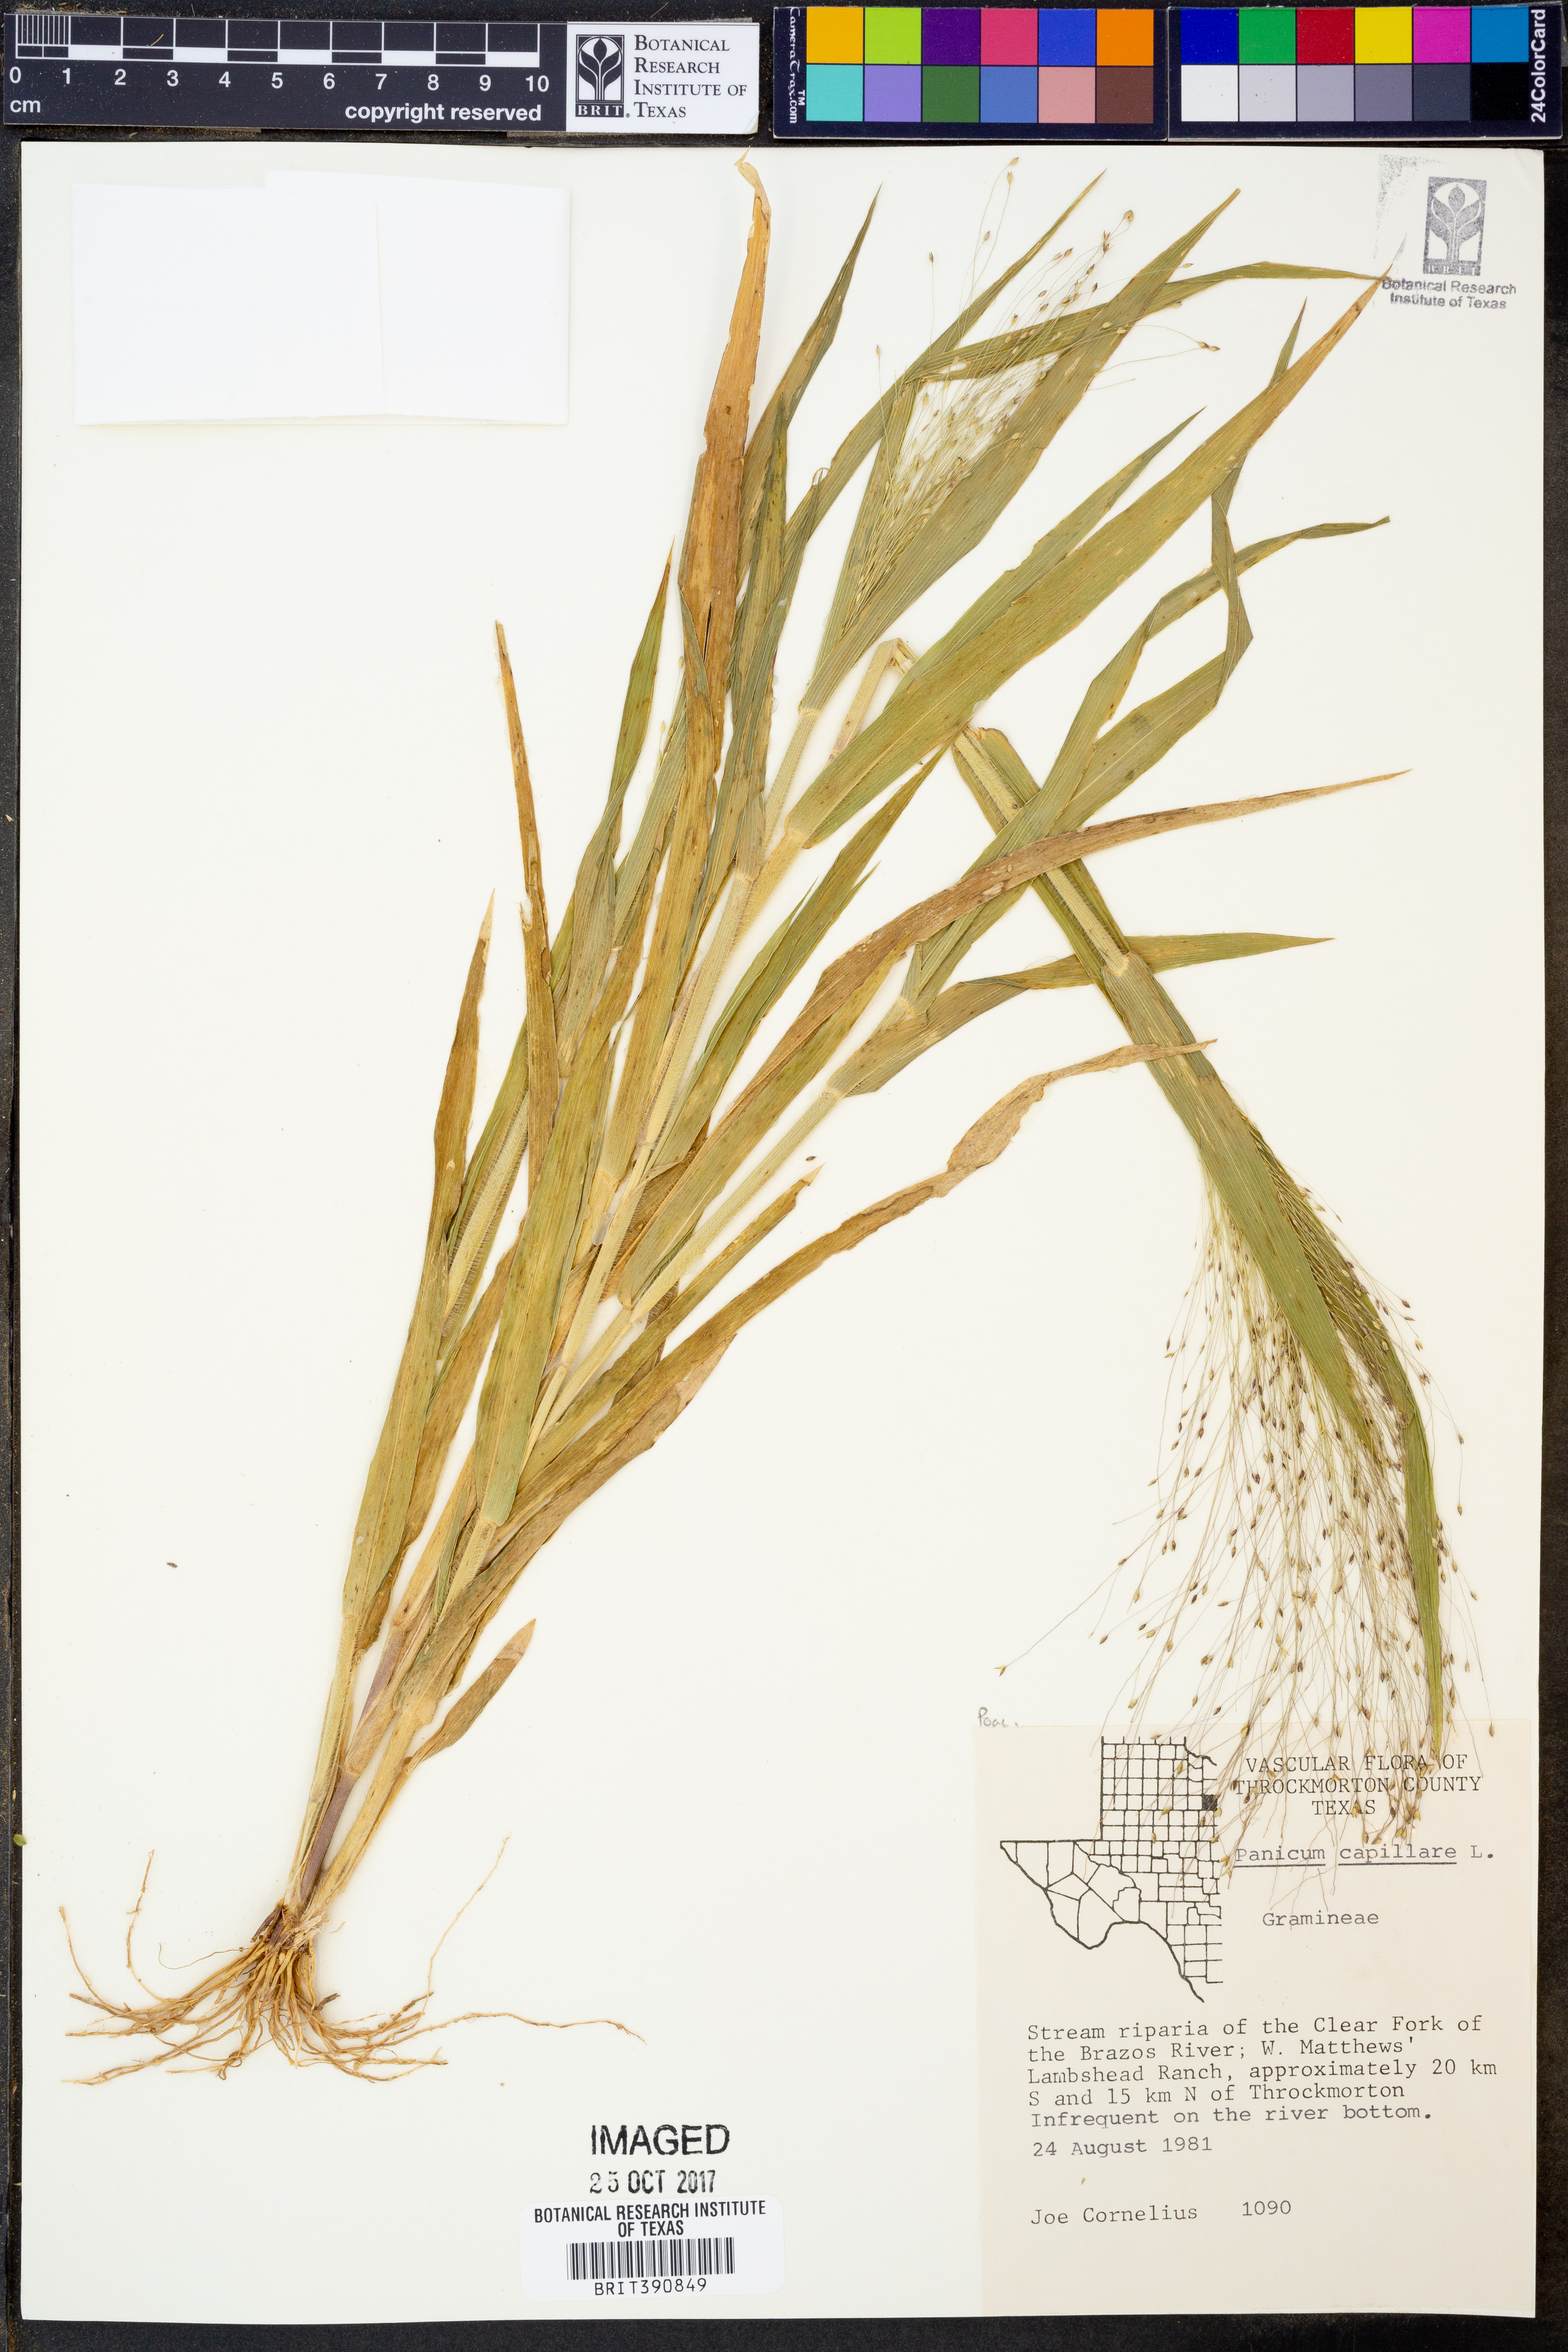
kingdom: Plantae
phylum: Tracheophyta
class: Liliopsida
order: Poales
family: Poaceae
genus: Panicum
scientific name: Panicum capillare
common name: Witch-grass
